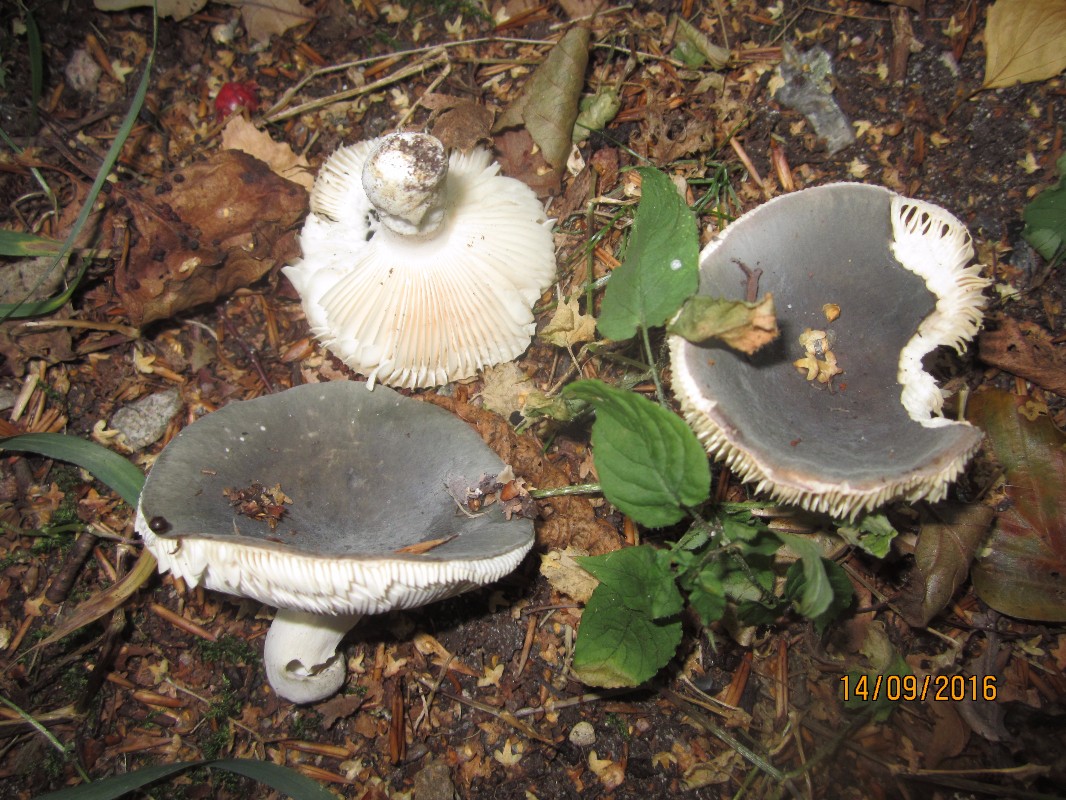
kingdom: Fungi
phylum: Basidiomycota
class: Agaricomycetes
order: Russulales
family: Russulaceae
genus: Russula
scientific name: Russula parazurea
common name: blågrå skørhat
